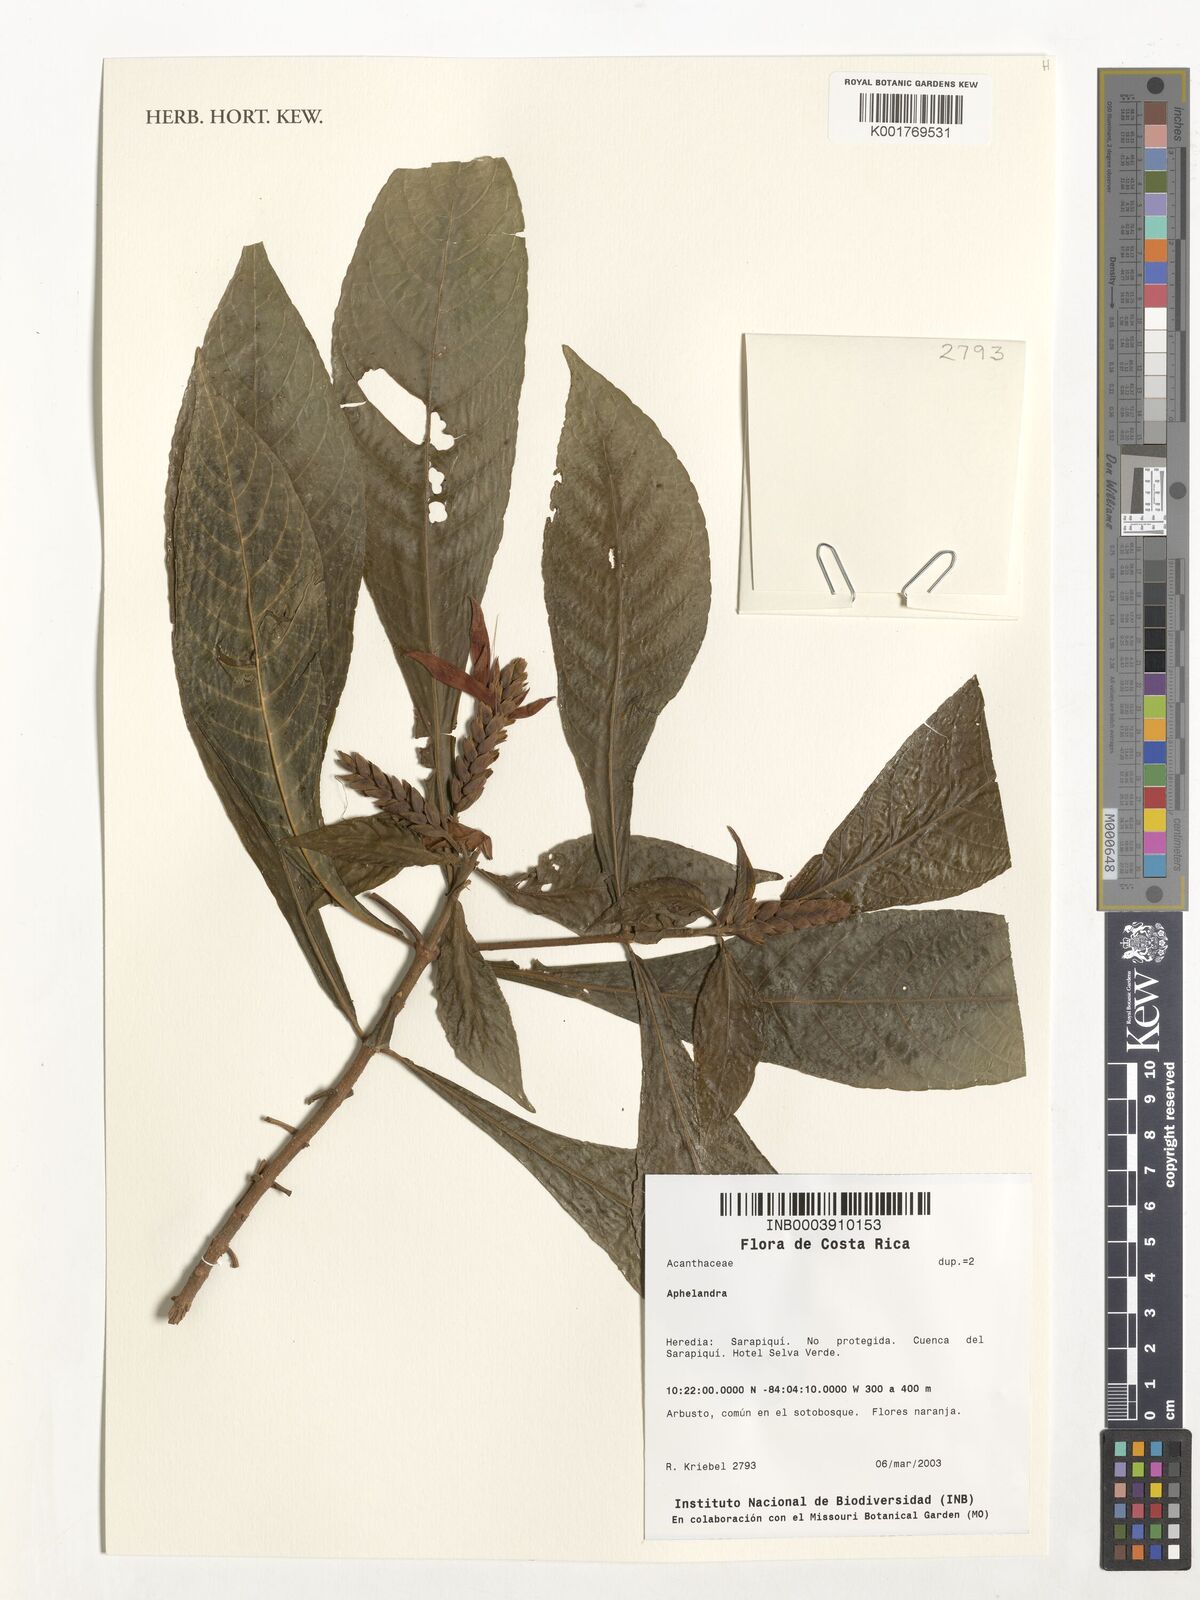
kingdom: Plantae
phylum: Tracheophyta
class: Magnoliopsida
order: Lamiales
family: Acanthaceae
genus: Aphelandra
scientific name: Aphelandra
